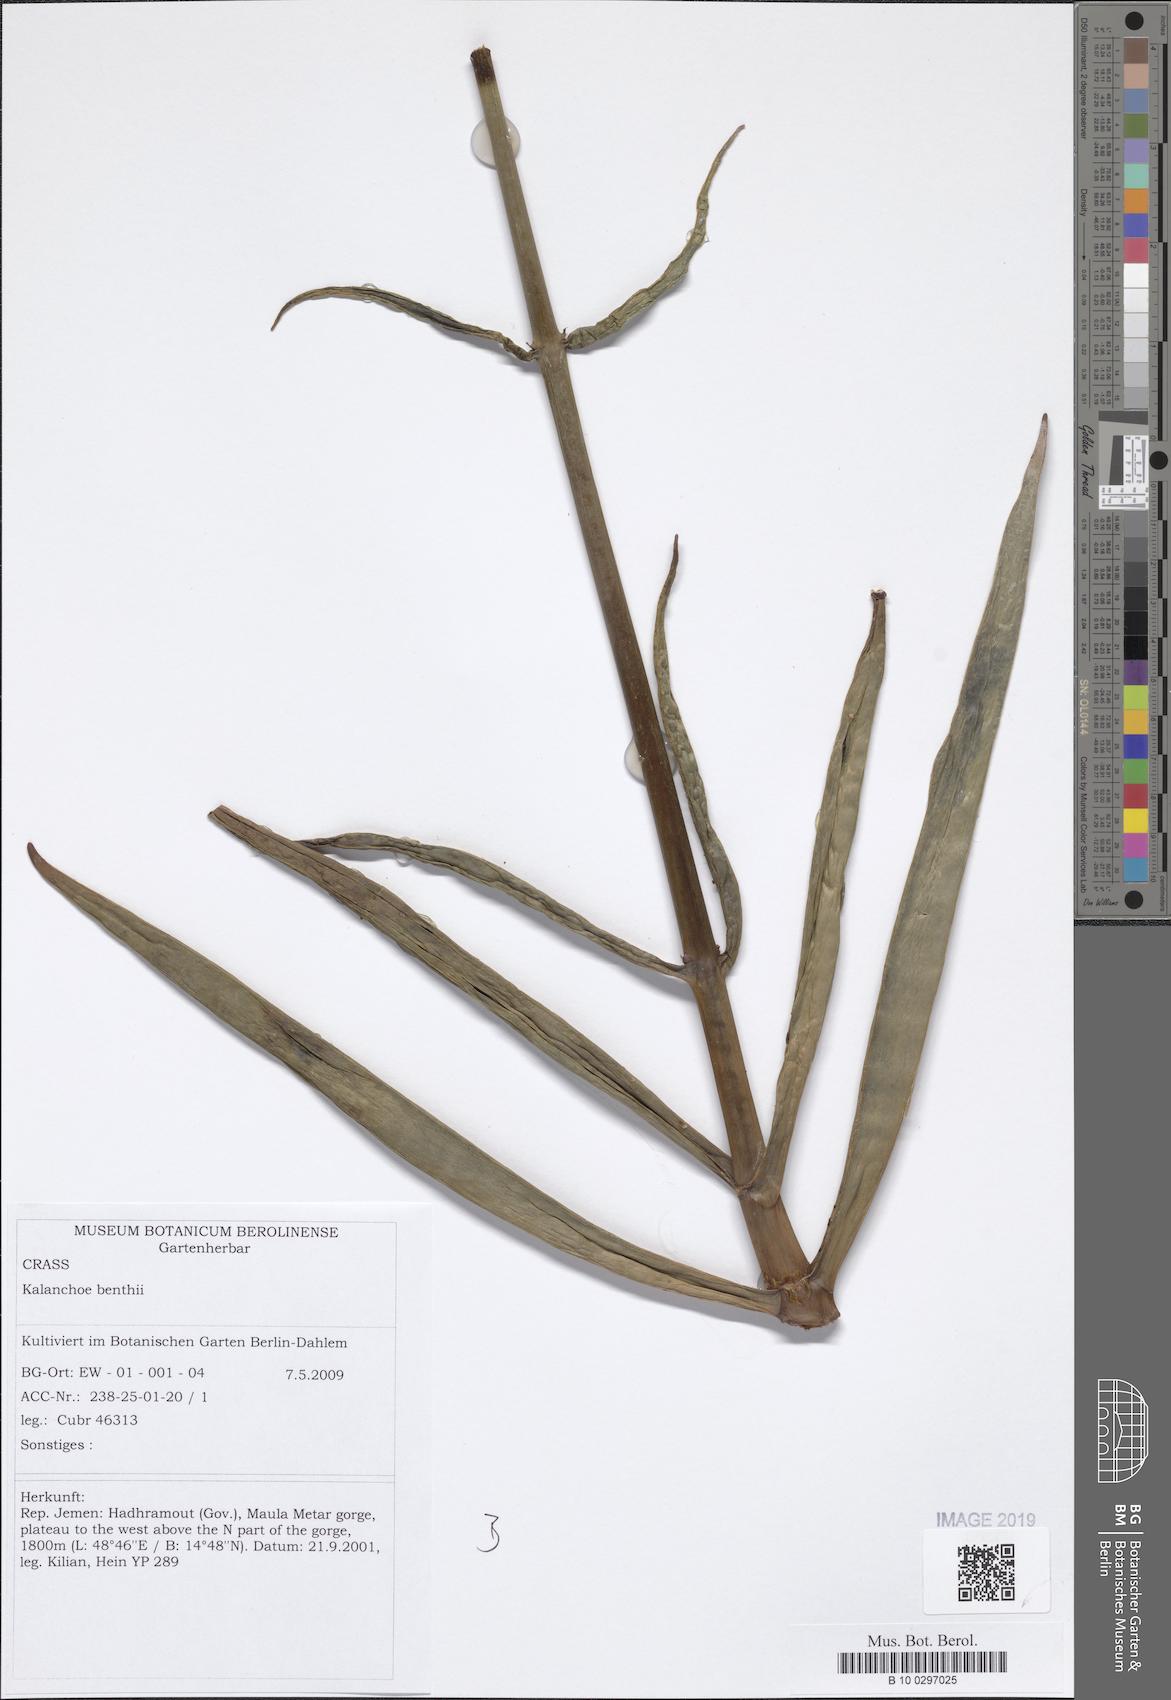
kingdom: Plantae
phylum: Tracheophyta
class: Magnoliopsida
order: Saxifragales
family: Crassulaceae
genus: Kalanchoe
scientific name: Kalanchoe bentii
